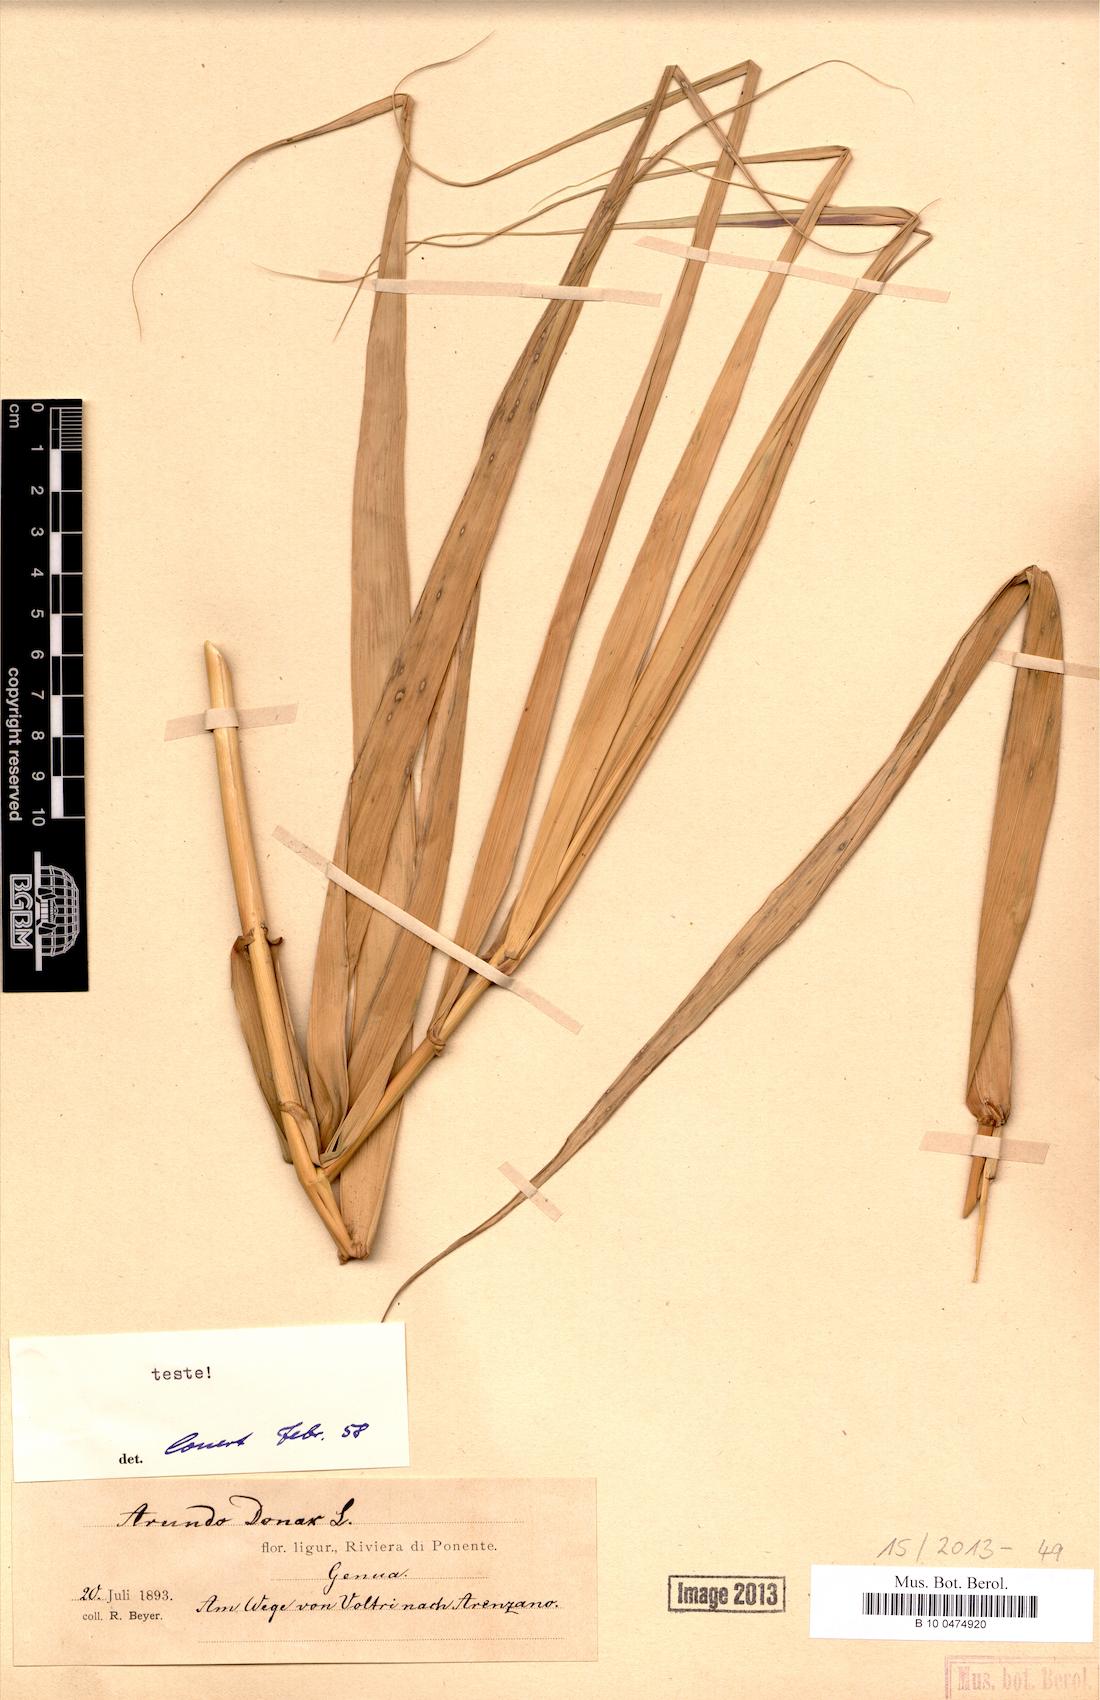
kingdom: Plantae
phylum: Tracheophyta
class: Liliopsida
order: Poales
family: Poaceae
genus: Arundo
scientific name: Arundo donax
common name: Giant reed
